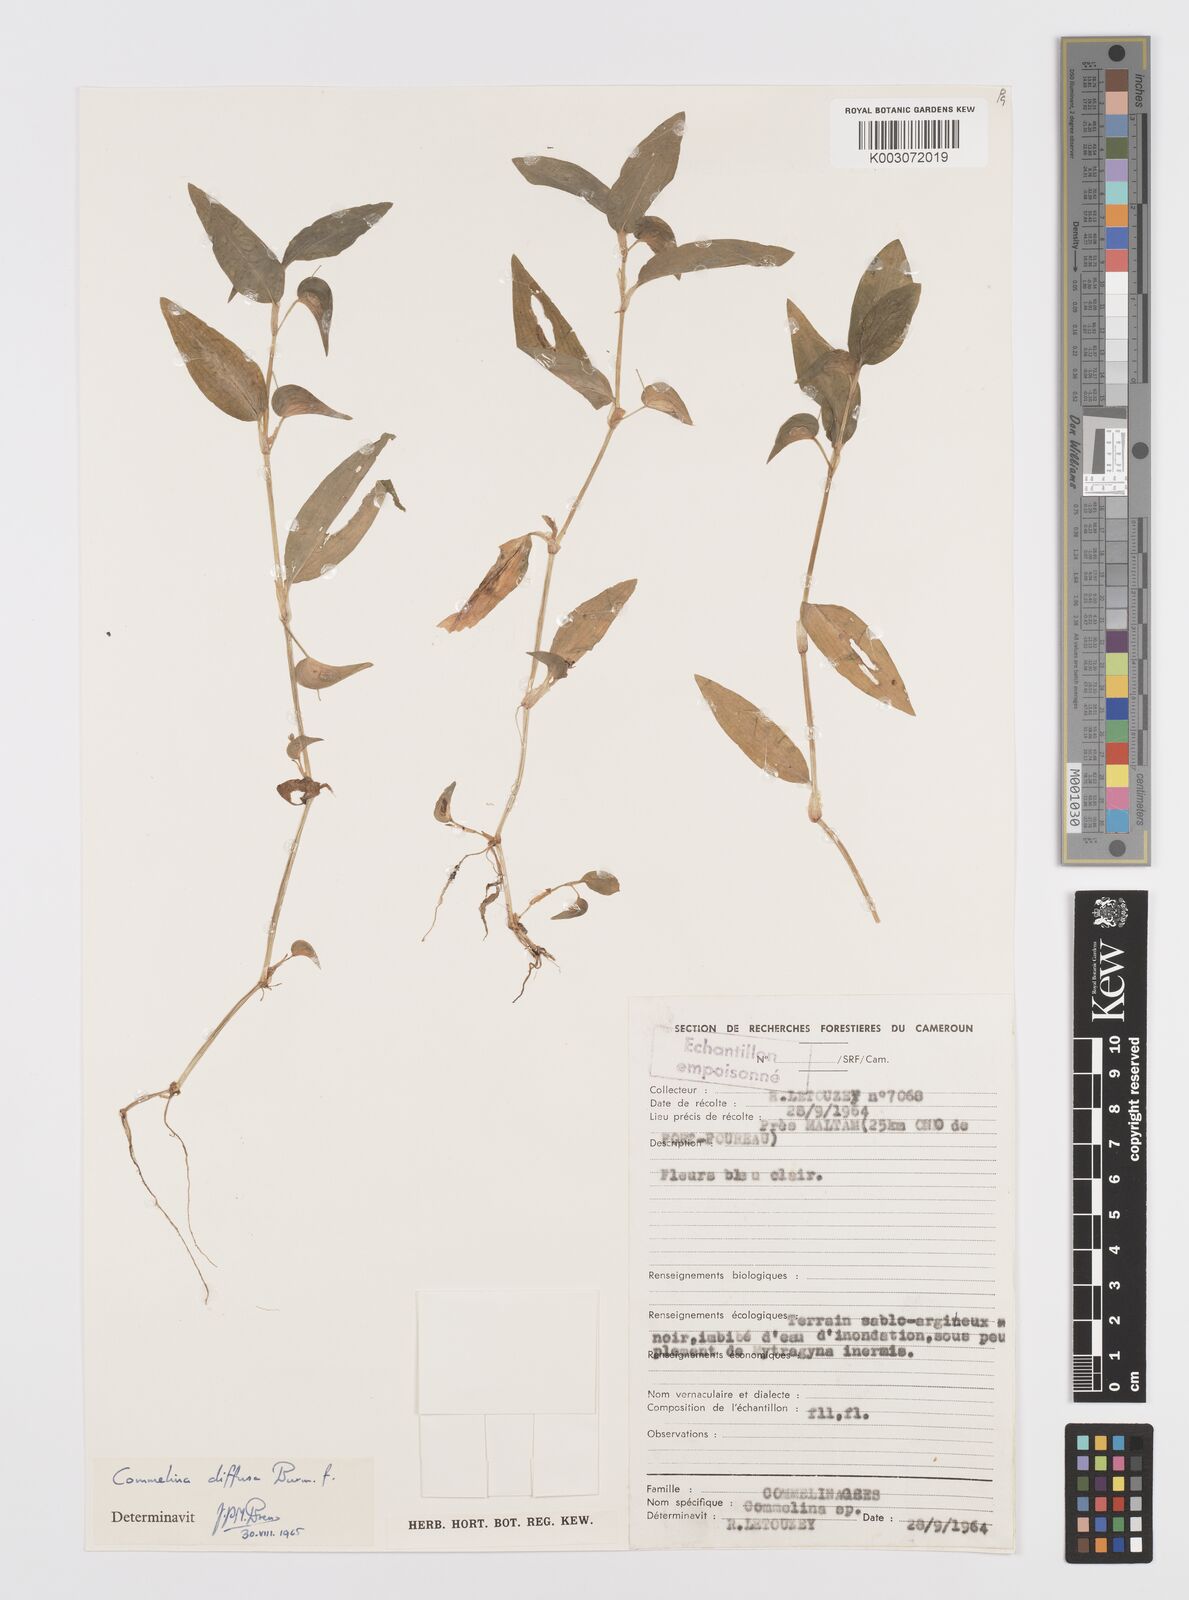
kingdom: Plantae
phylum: Tracheophyta
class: Liliopsida
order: Commelinales
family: Commelinaceae
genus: Commelina
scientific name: Commelina diffusa
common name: Climbing dayflower
